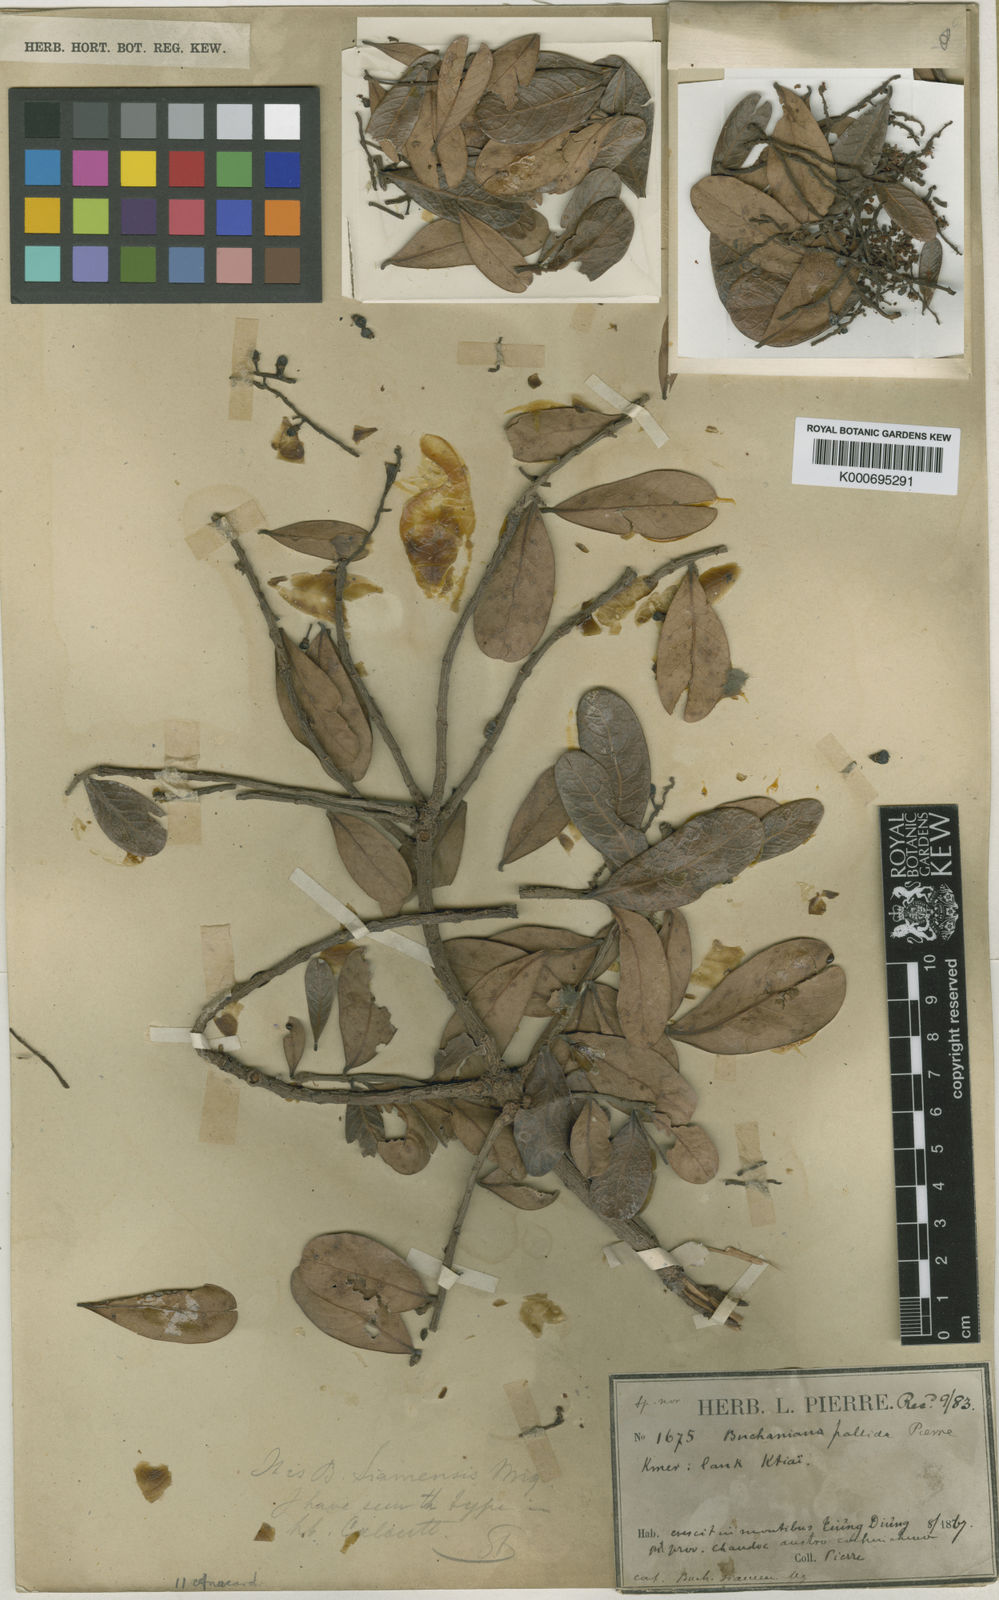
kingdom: Plantae
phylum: Tracheophyta
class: Magnoliopsida
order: Sapindales
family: Anacardiaceae
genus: Buchanania
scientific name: Buchanania siamensis
